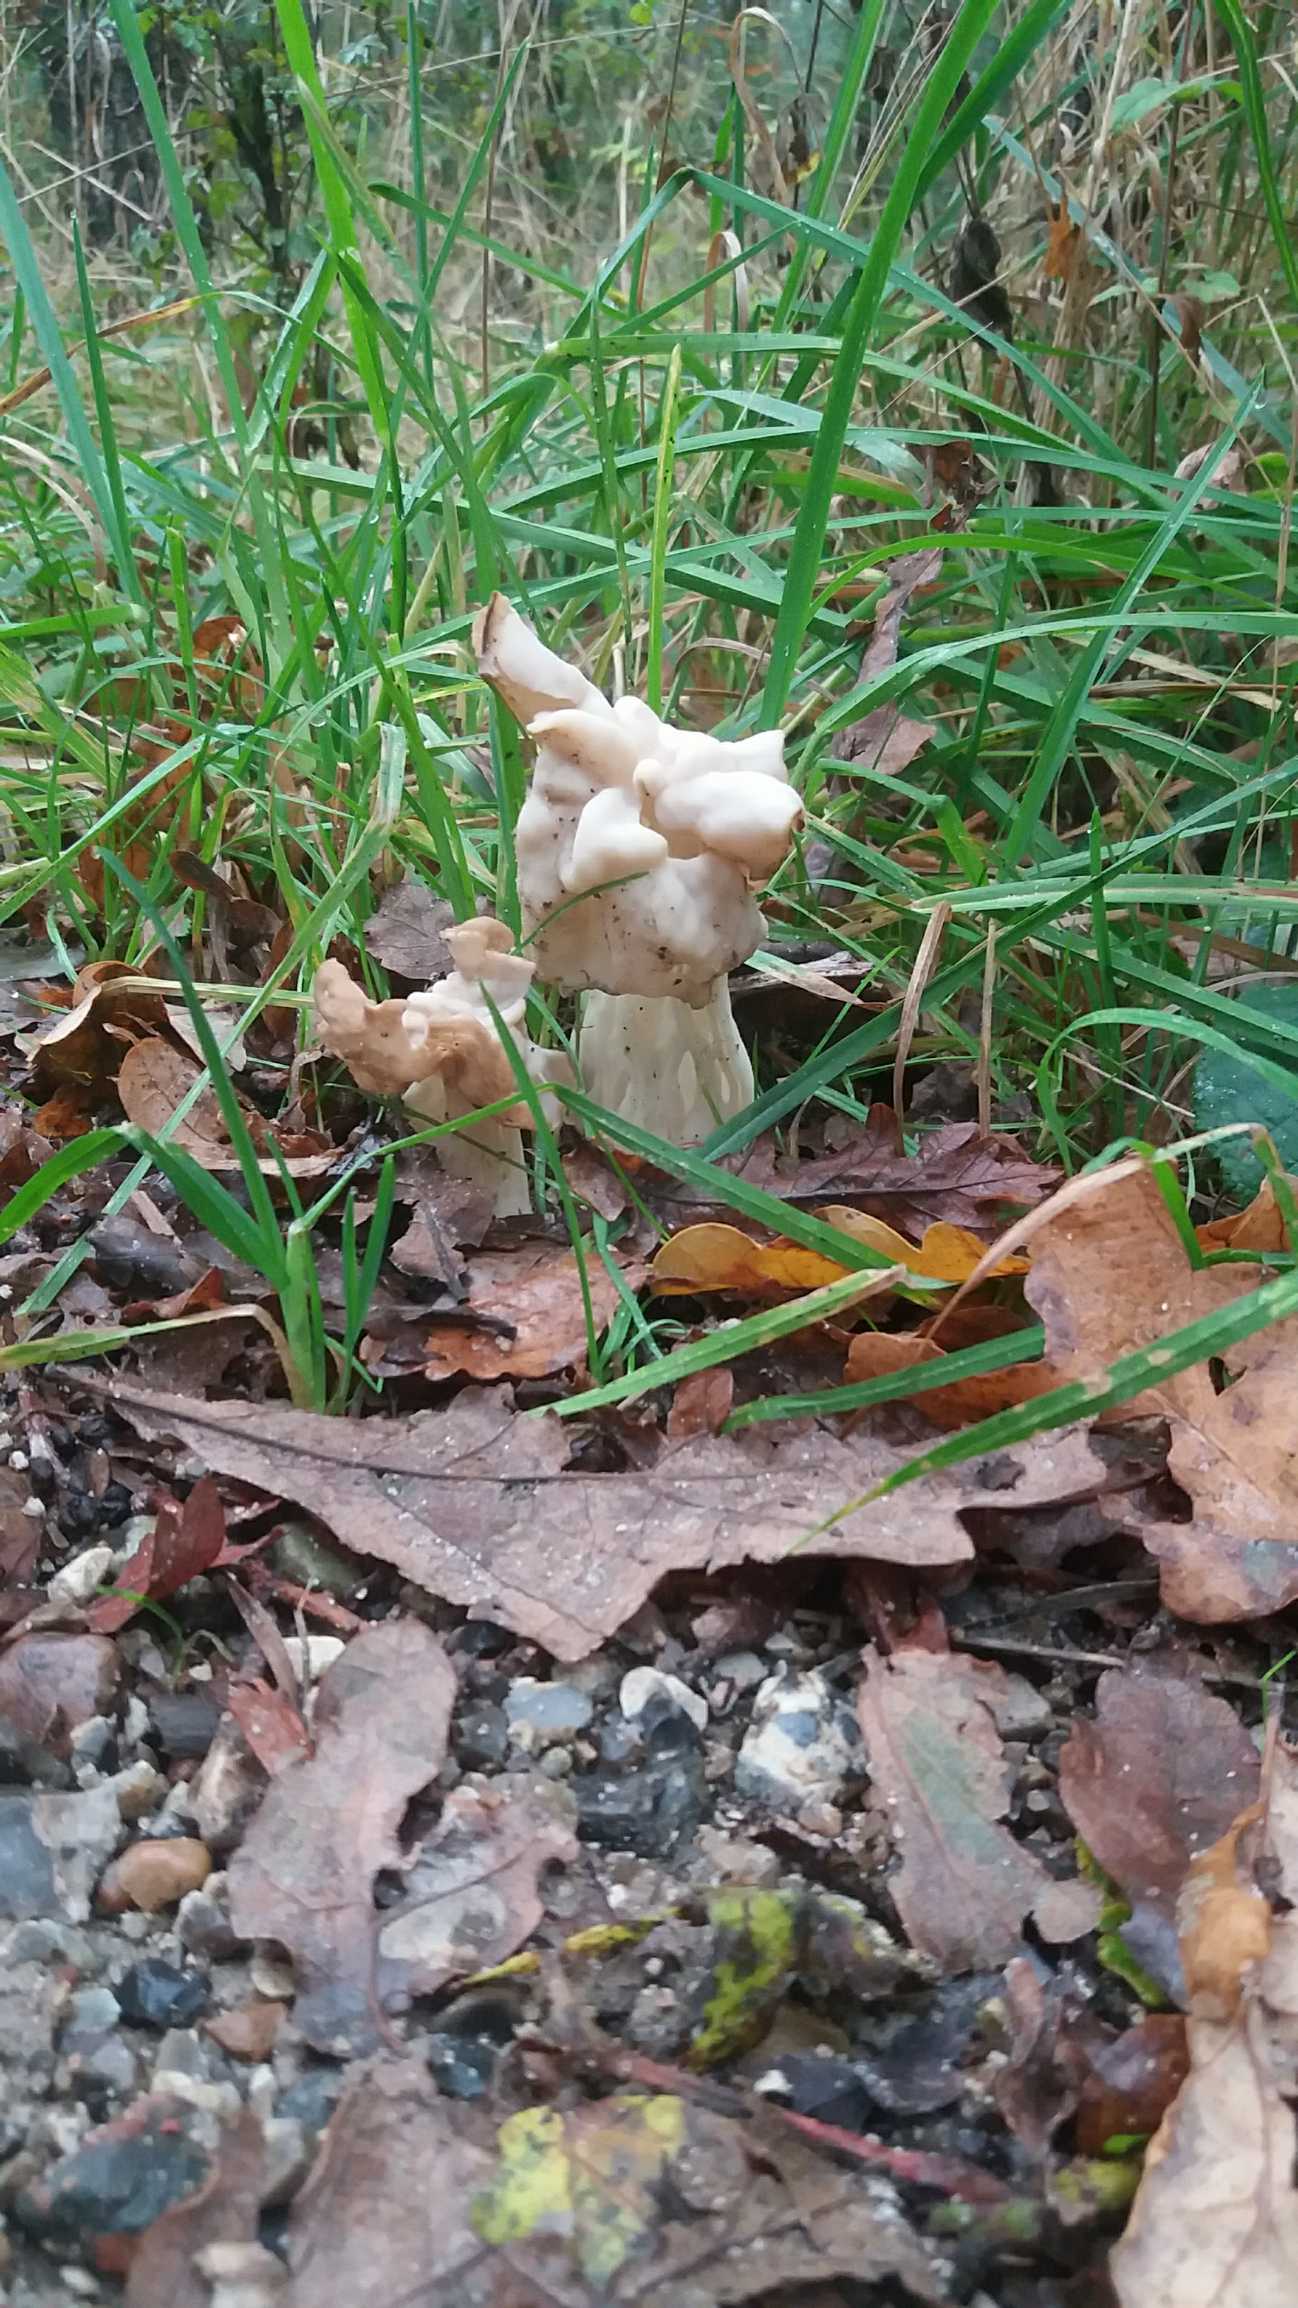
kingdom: Fungi
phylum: Ascomycota
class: Pezizomycetes
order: Pezizales
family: Helvellaceae
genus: Helvella
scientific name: Helvella crispa
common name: Kruset foldhat
